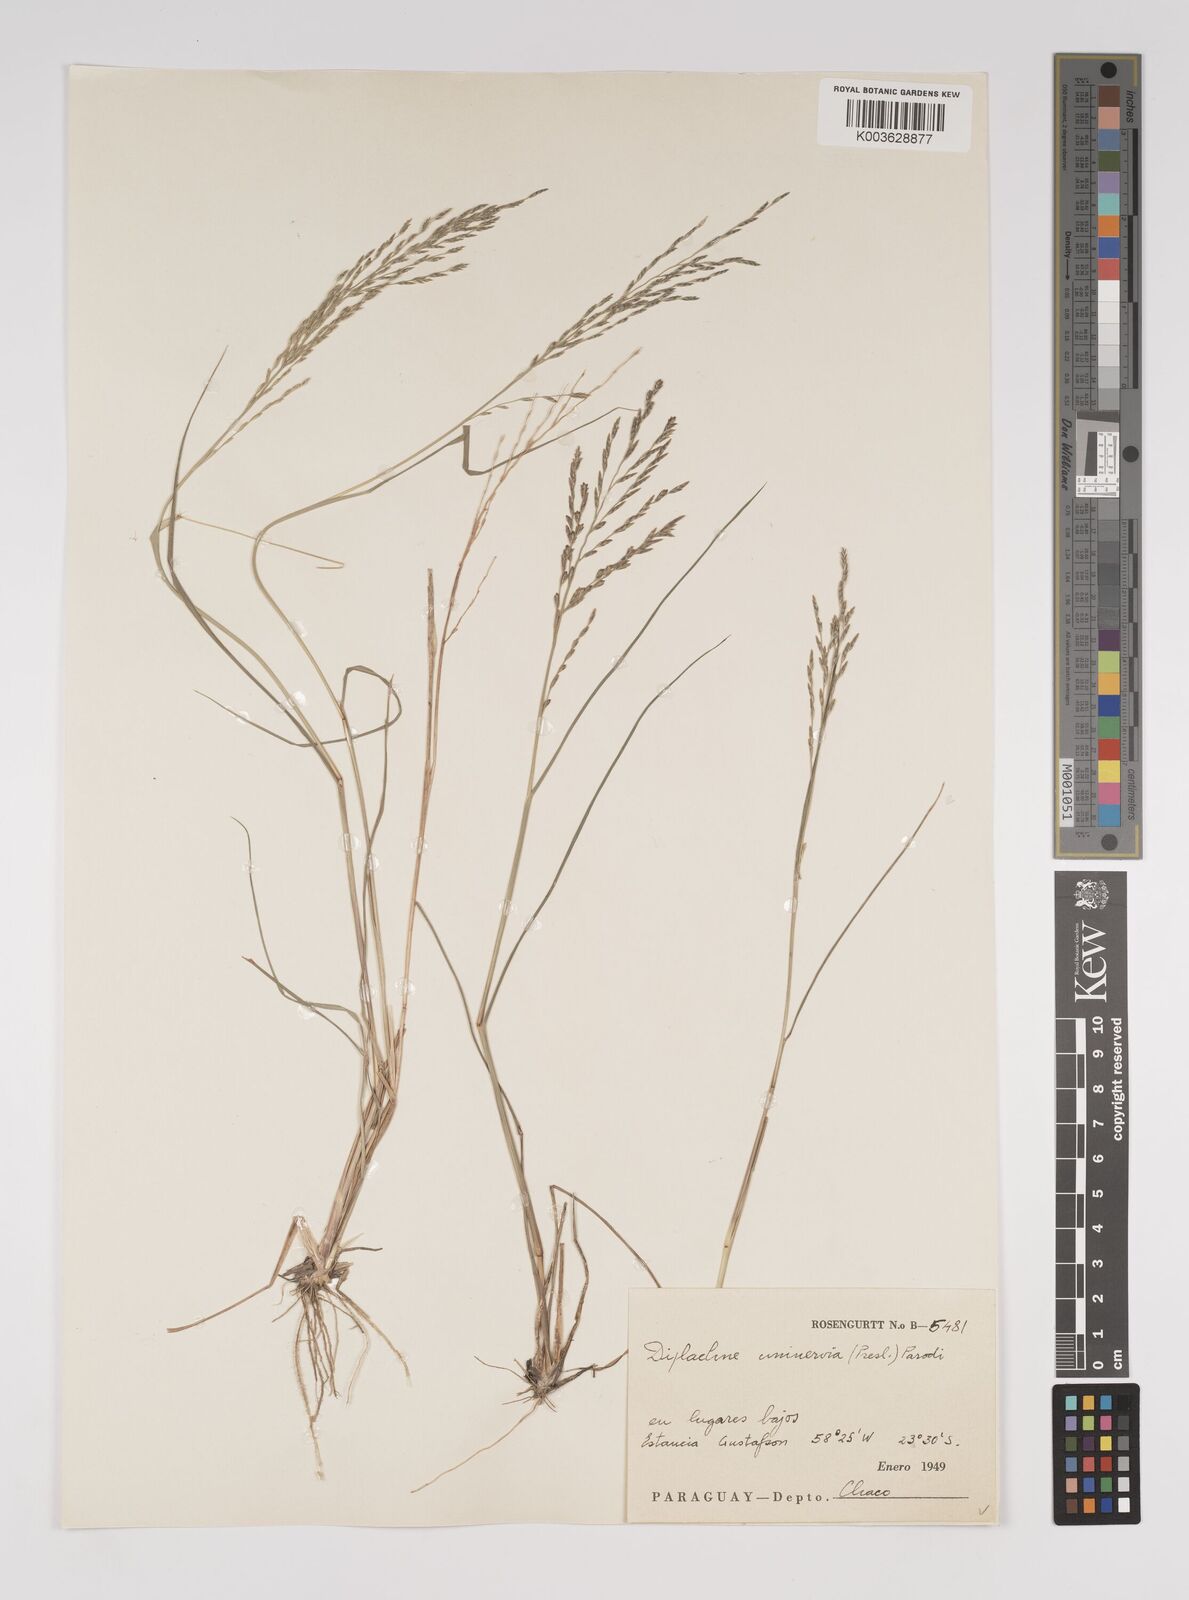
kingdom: Plantae
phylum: Tracheophyta
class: Liliopsida
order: Poales
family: Poaceae
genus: Diplachne
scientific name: Diplachne fusca
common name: Brown beetle grass
